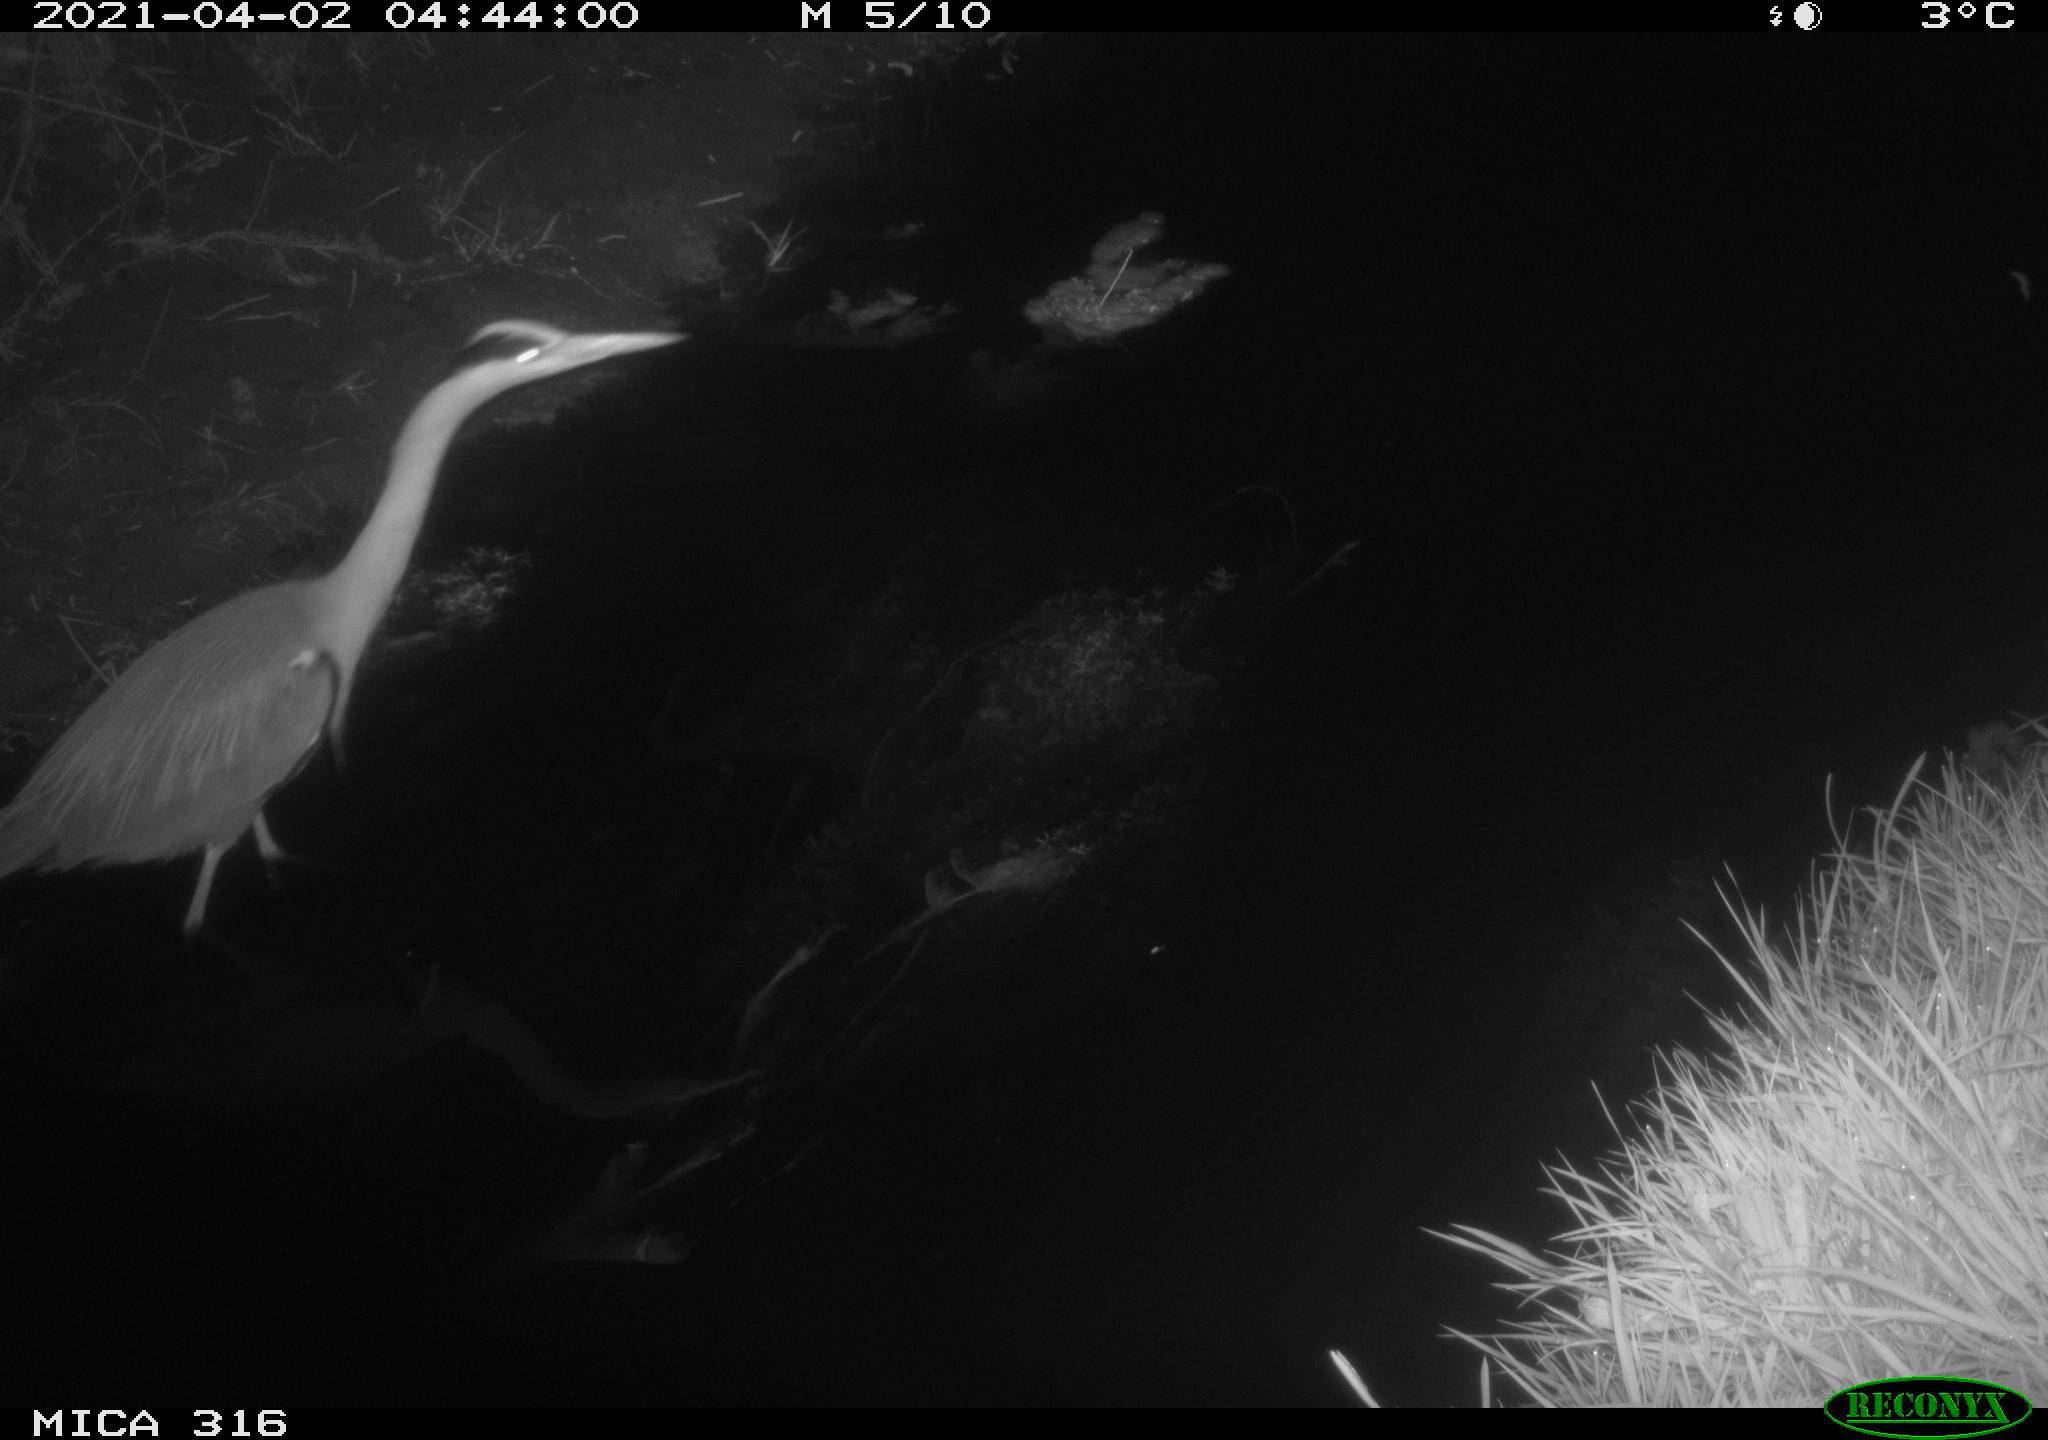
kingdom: Animalia
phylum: Chordata
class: Aves
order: Pelecaniformes
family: Ardeidae
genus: Ardea
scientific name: Ardea
